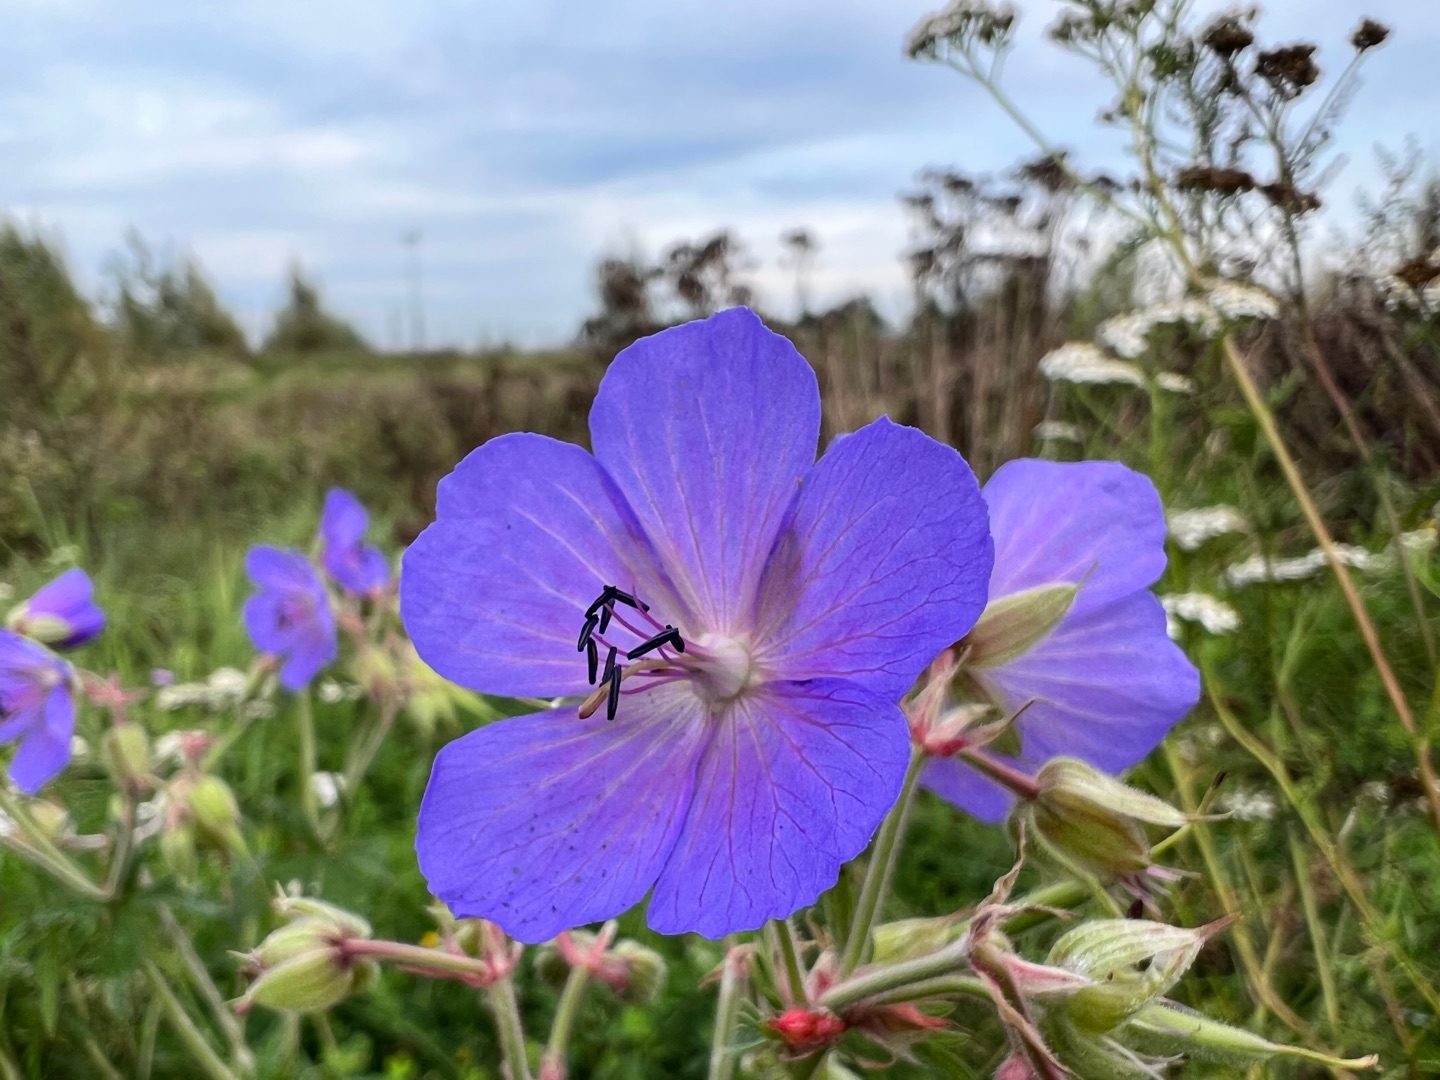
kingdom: Plantae
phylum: Tracheophyta
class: Magnoliopsida
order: Geraniales
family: Geraniaceae
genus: Geranium
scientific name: Geranium pratense
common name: Eng-storkenæb
